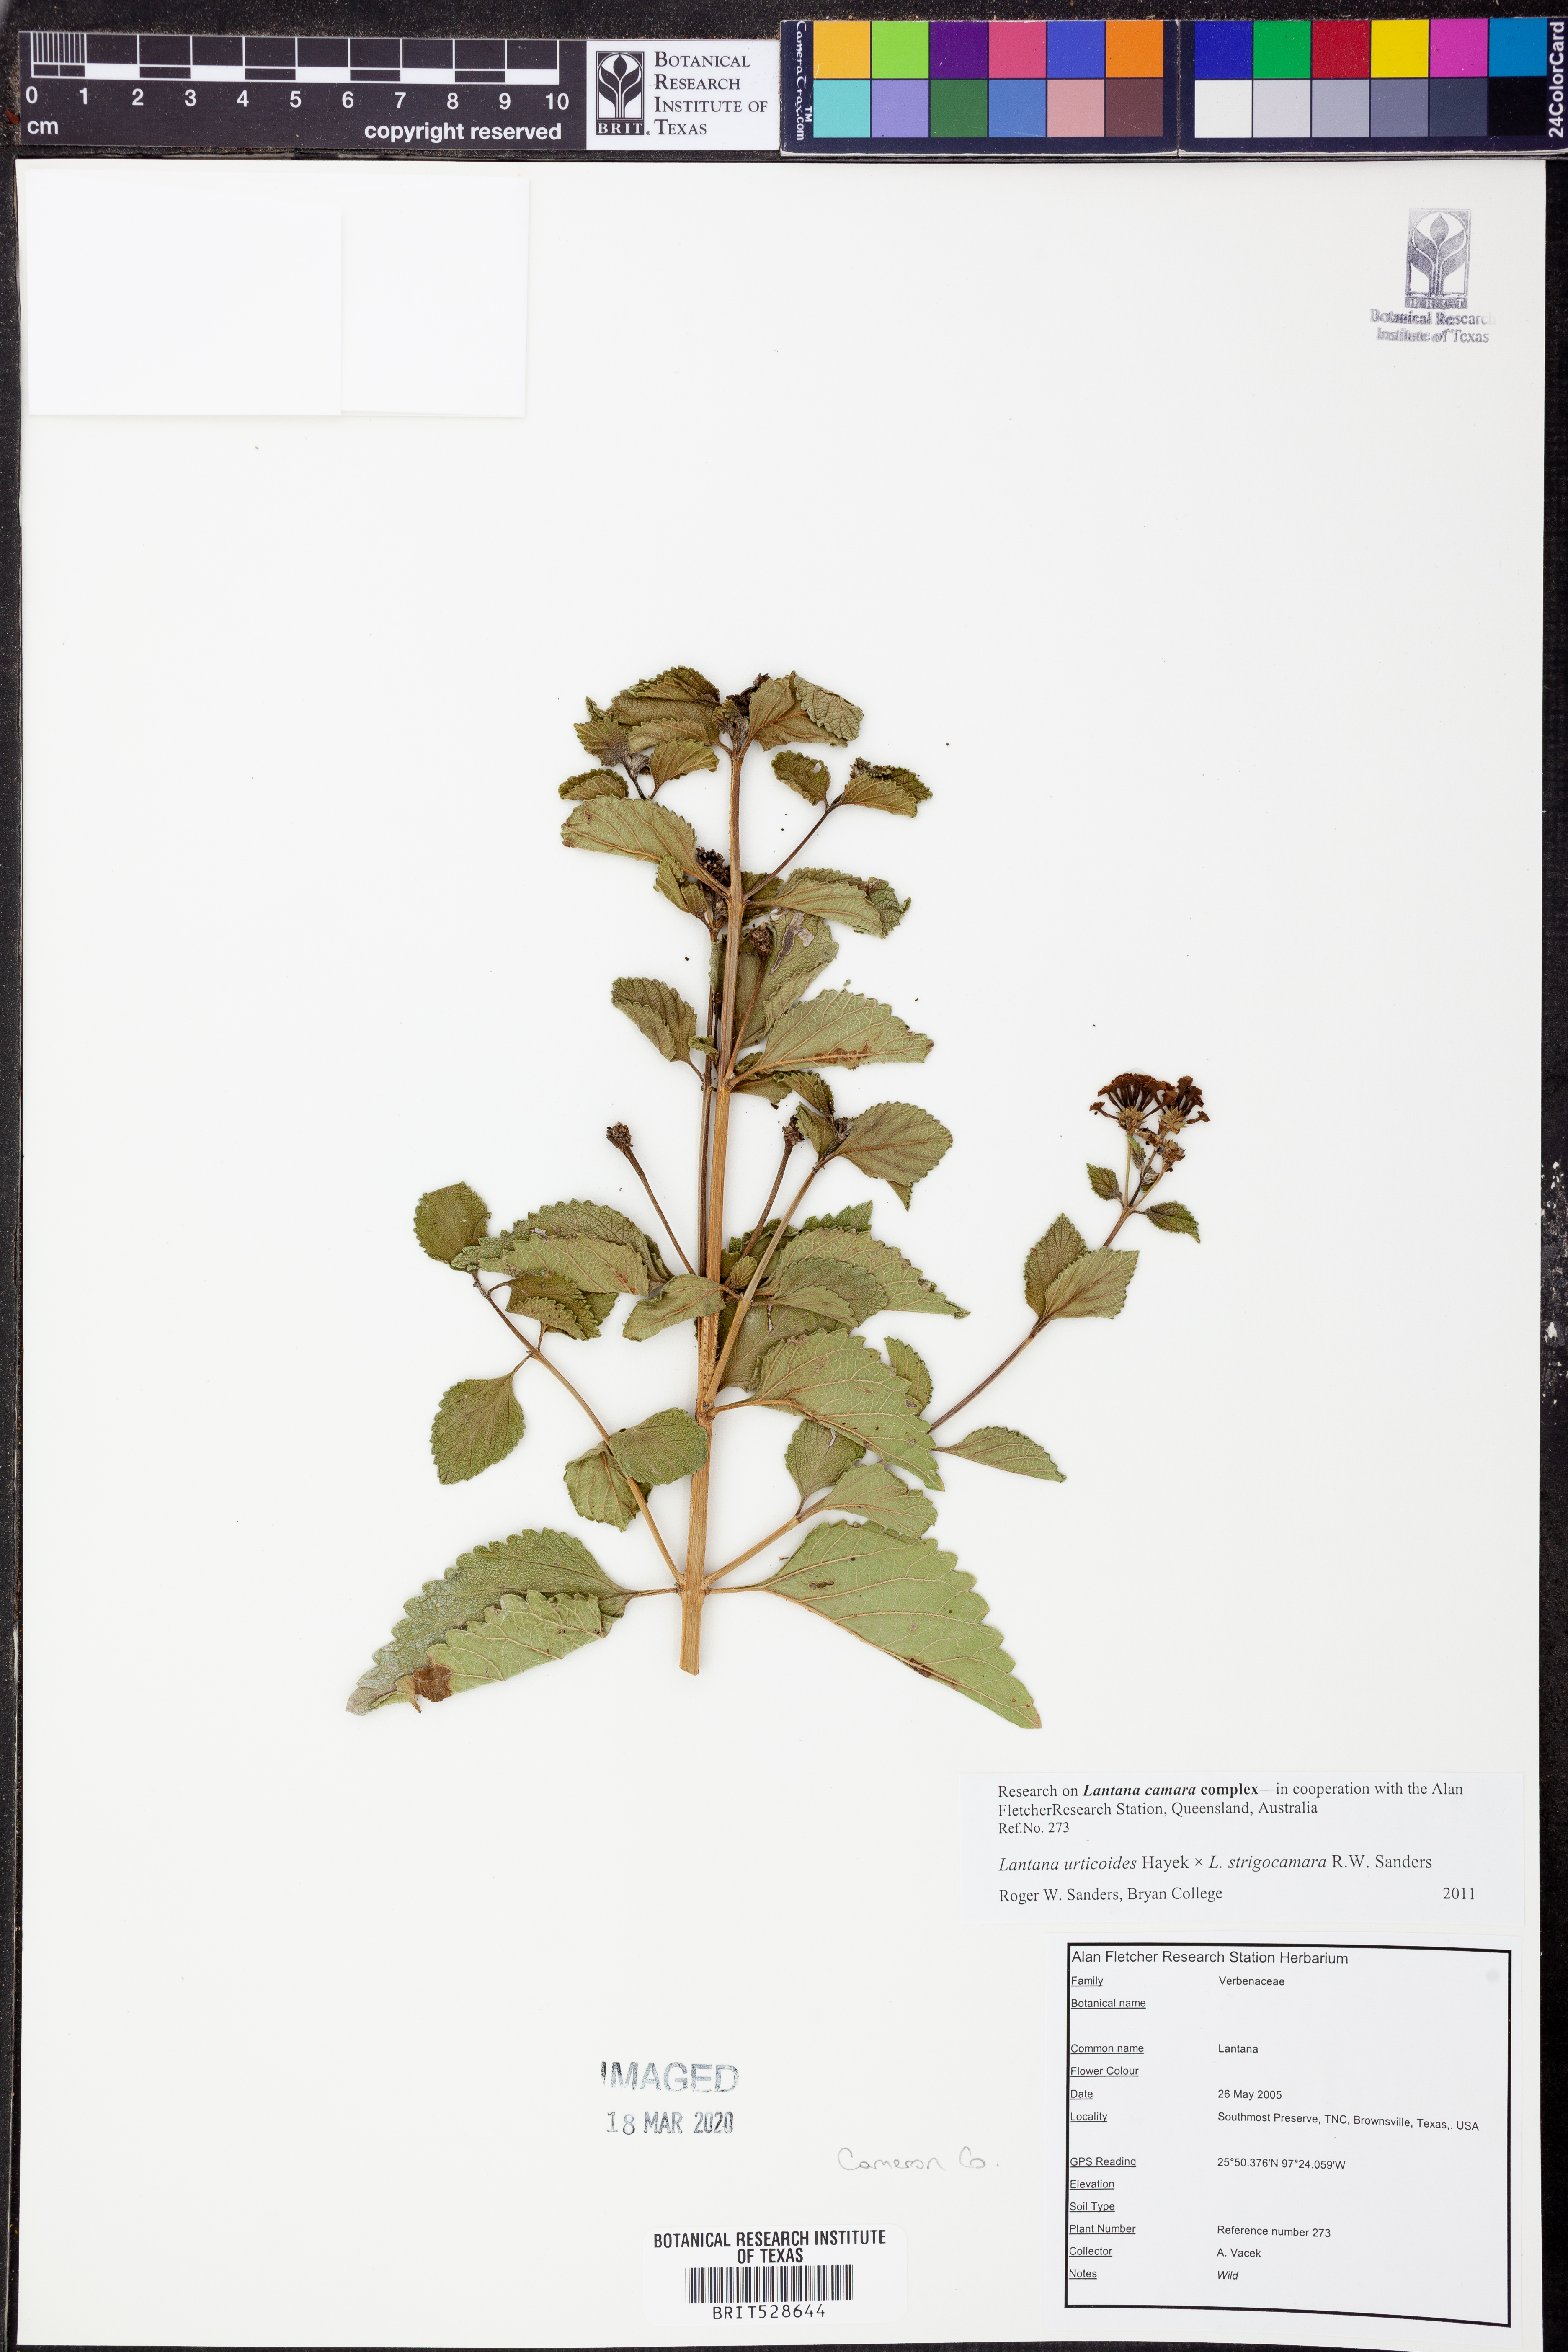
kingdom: Plantae
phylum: Tracheophyta
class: Magnoliopsida
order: Lamiales
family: Verbenaceae
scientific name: Verbenaceae
